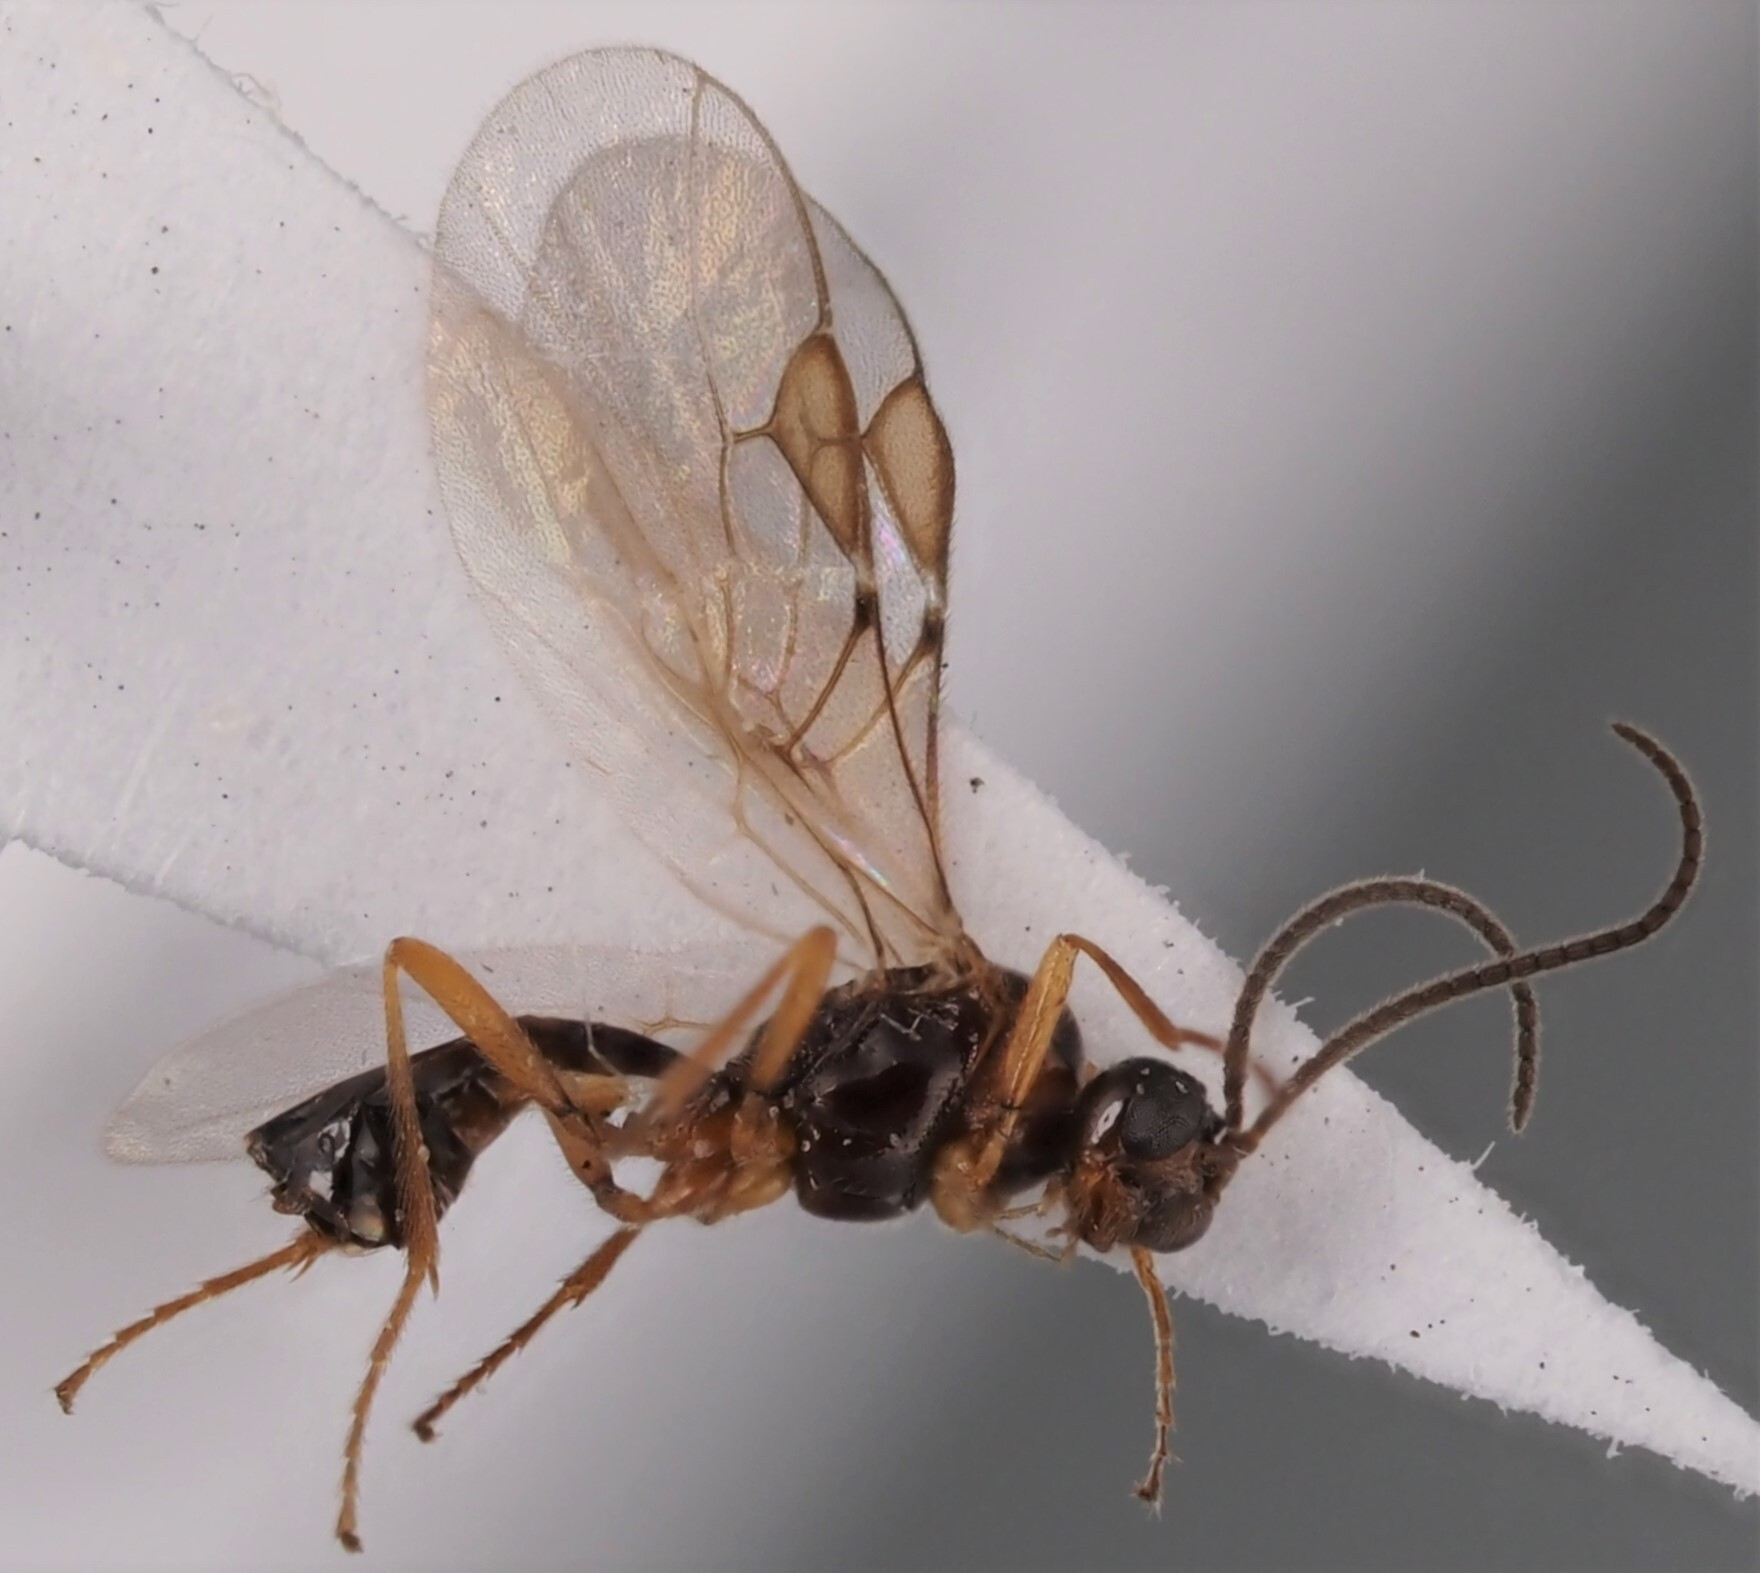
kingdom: Animalia
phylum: Arthropoda
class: Insecta
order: Hymenoptera
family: Braconidae
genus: Syntretus
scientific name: Syntretus politus
